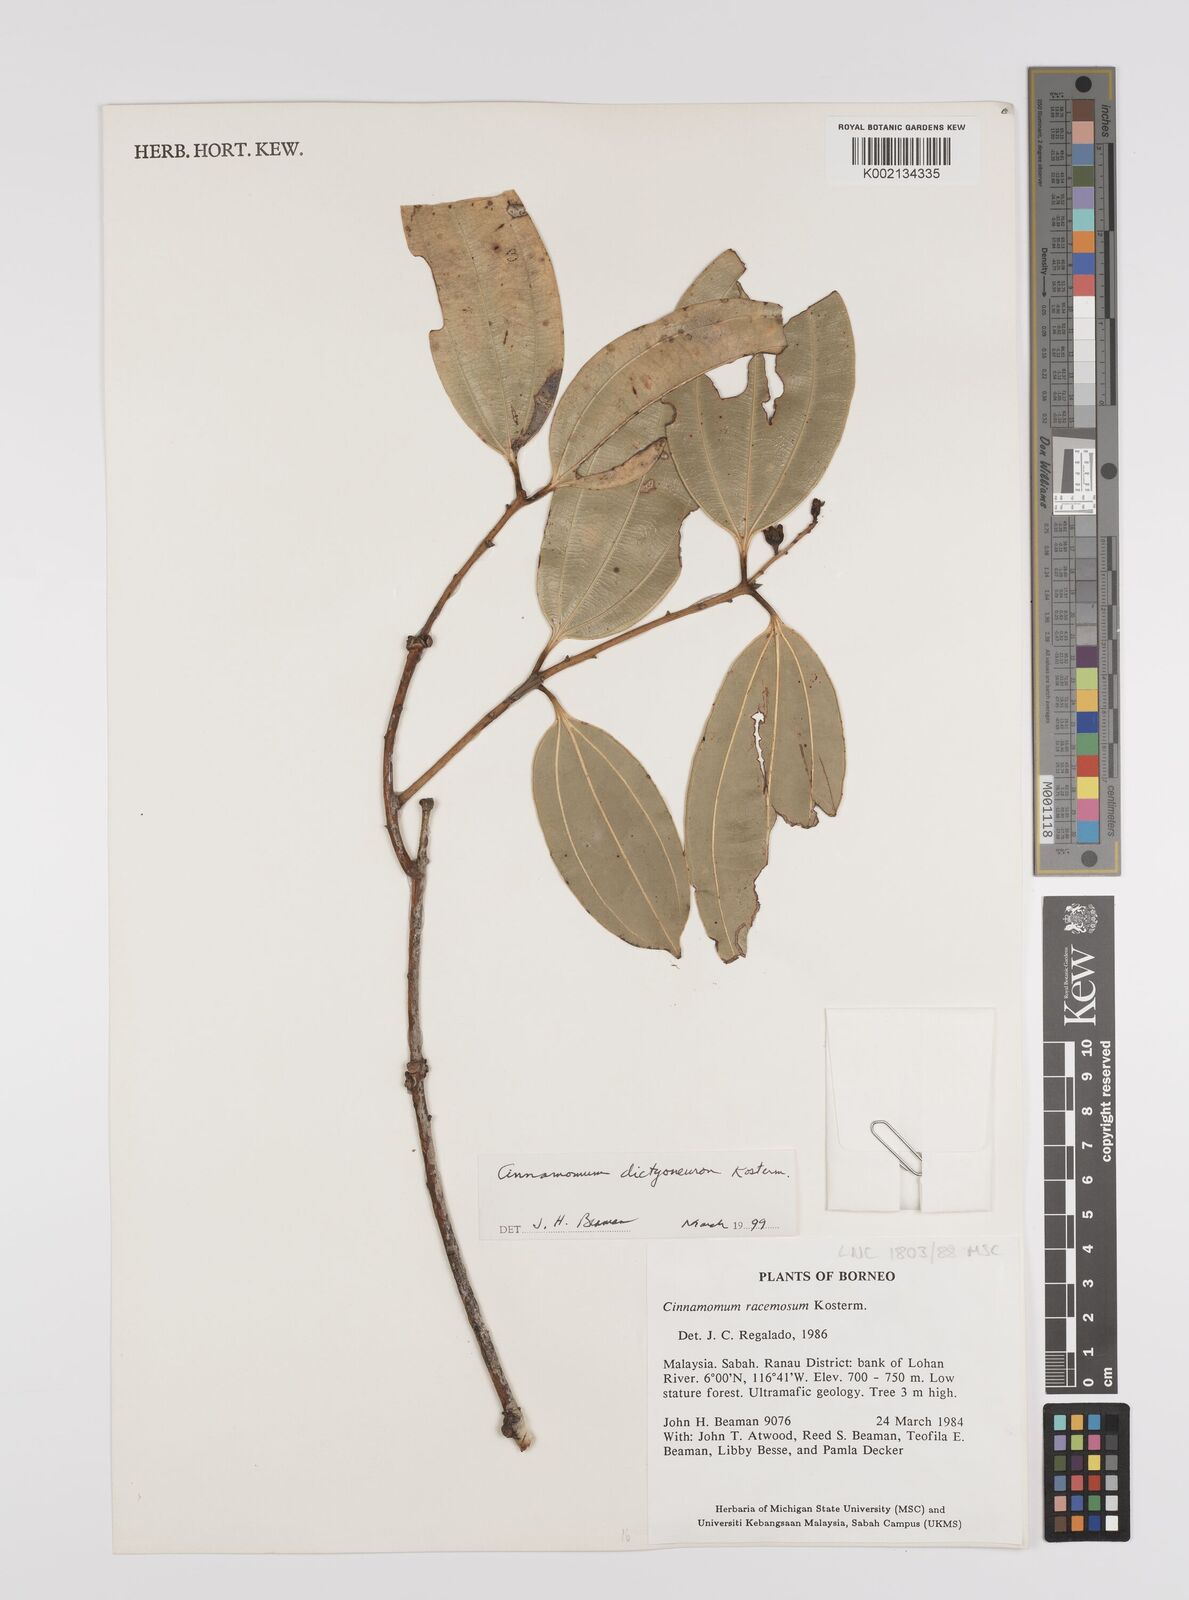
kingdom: Plantae
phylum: Tracheophyta
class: Magnoliopsida
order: Laurales
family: Lauraceae
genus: Cinnamomum
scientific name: Cinnamomum racemosum
